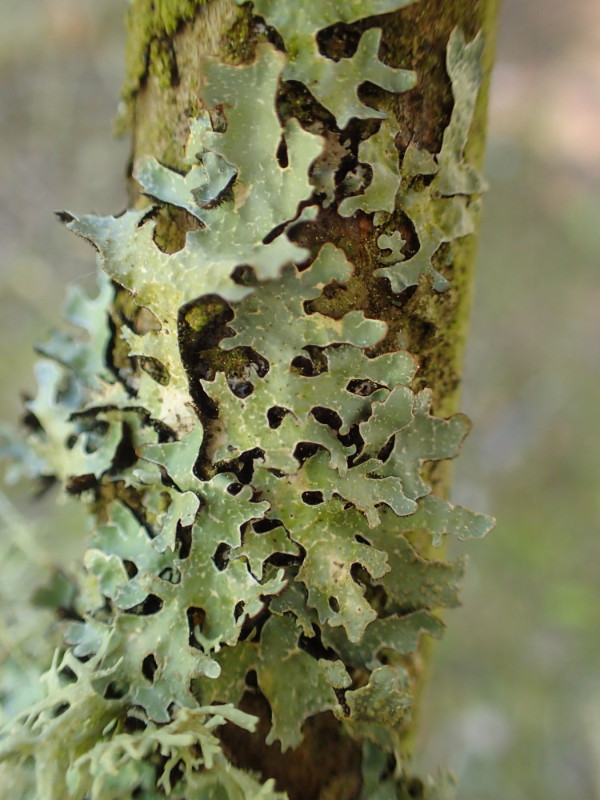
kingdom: Fungi
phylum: Ascomycota
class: Lecanoromycetes
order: Lecanorales
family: Parmeliaceae
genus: Parmelia
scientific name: Parmelia sulcata
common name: rynket skållav
